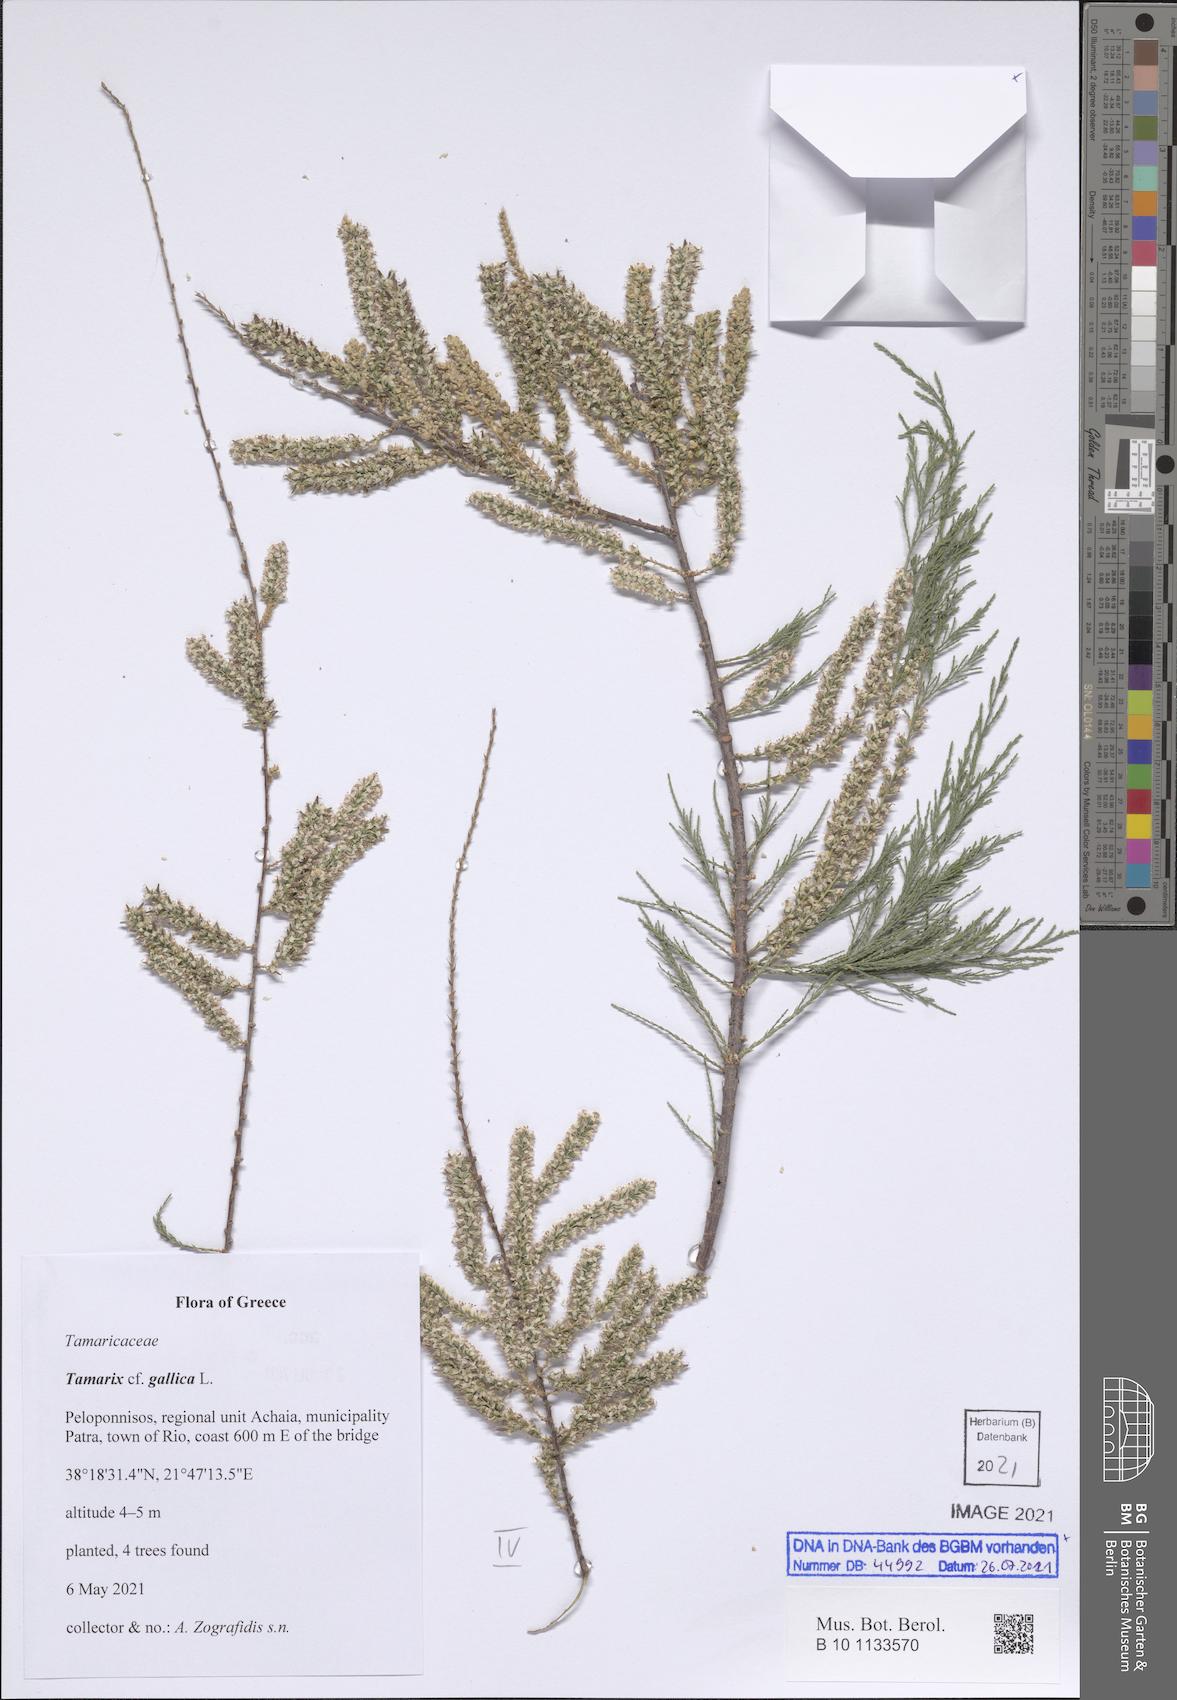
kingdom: Plantae
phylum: Tracheophyta
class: Magnoliopsida
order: Caryophyllales
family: Tamaricaceae
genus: Tamarix
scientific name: Tamarix gallica
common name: Tamarisk
